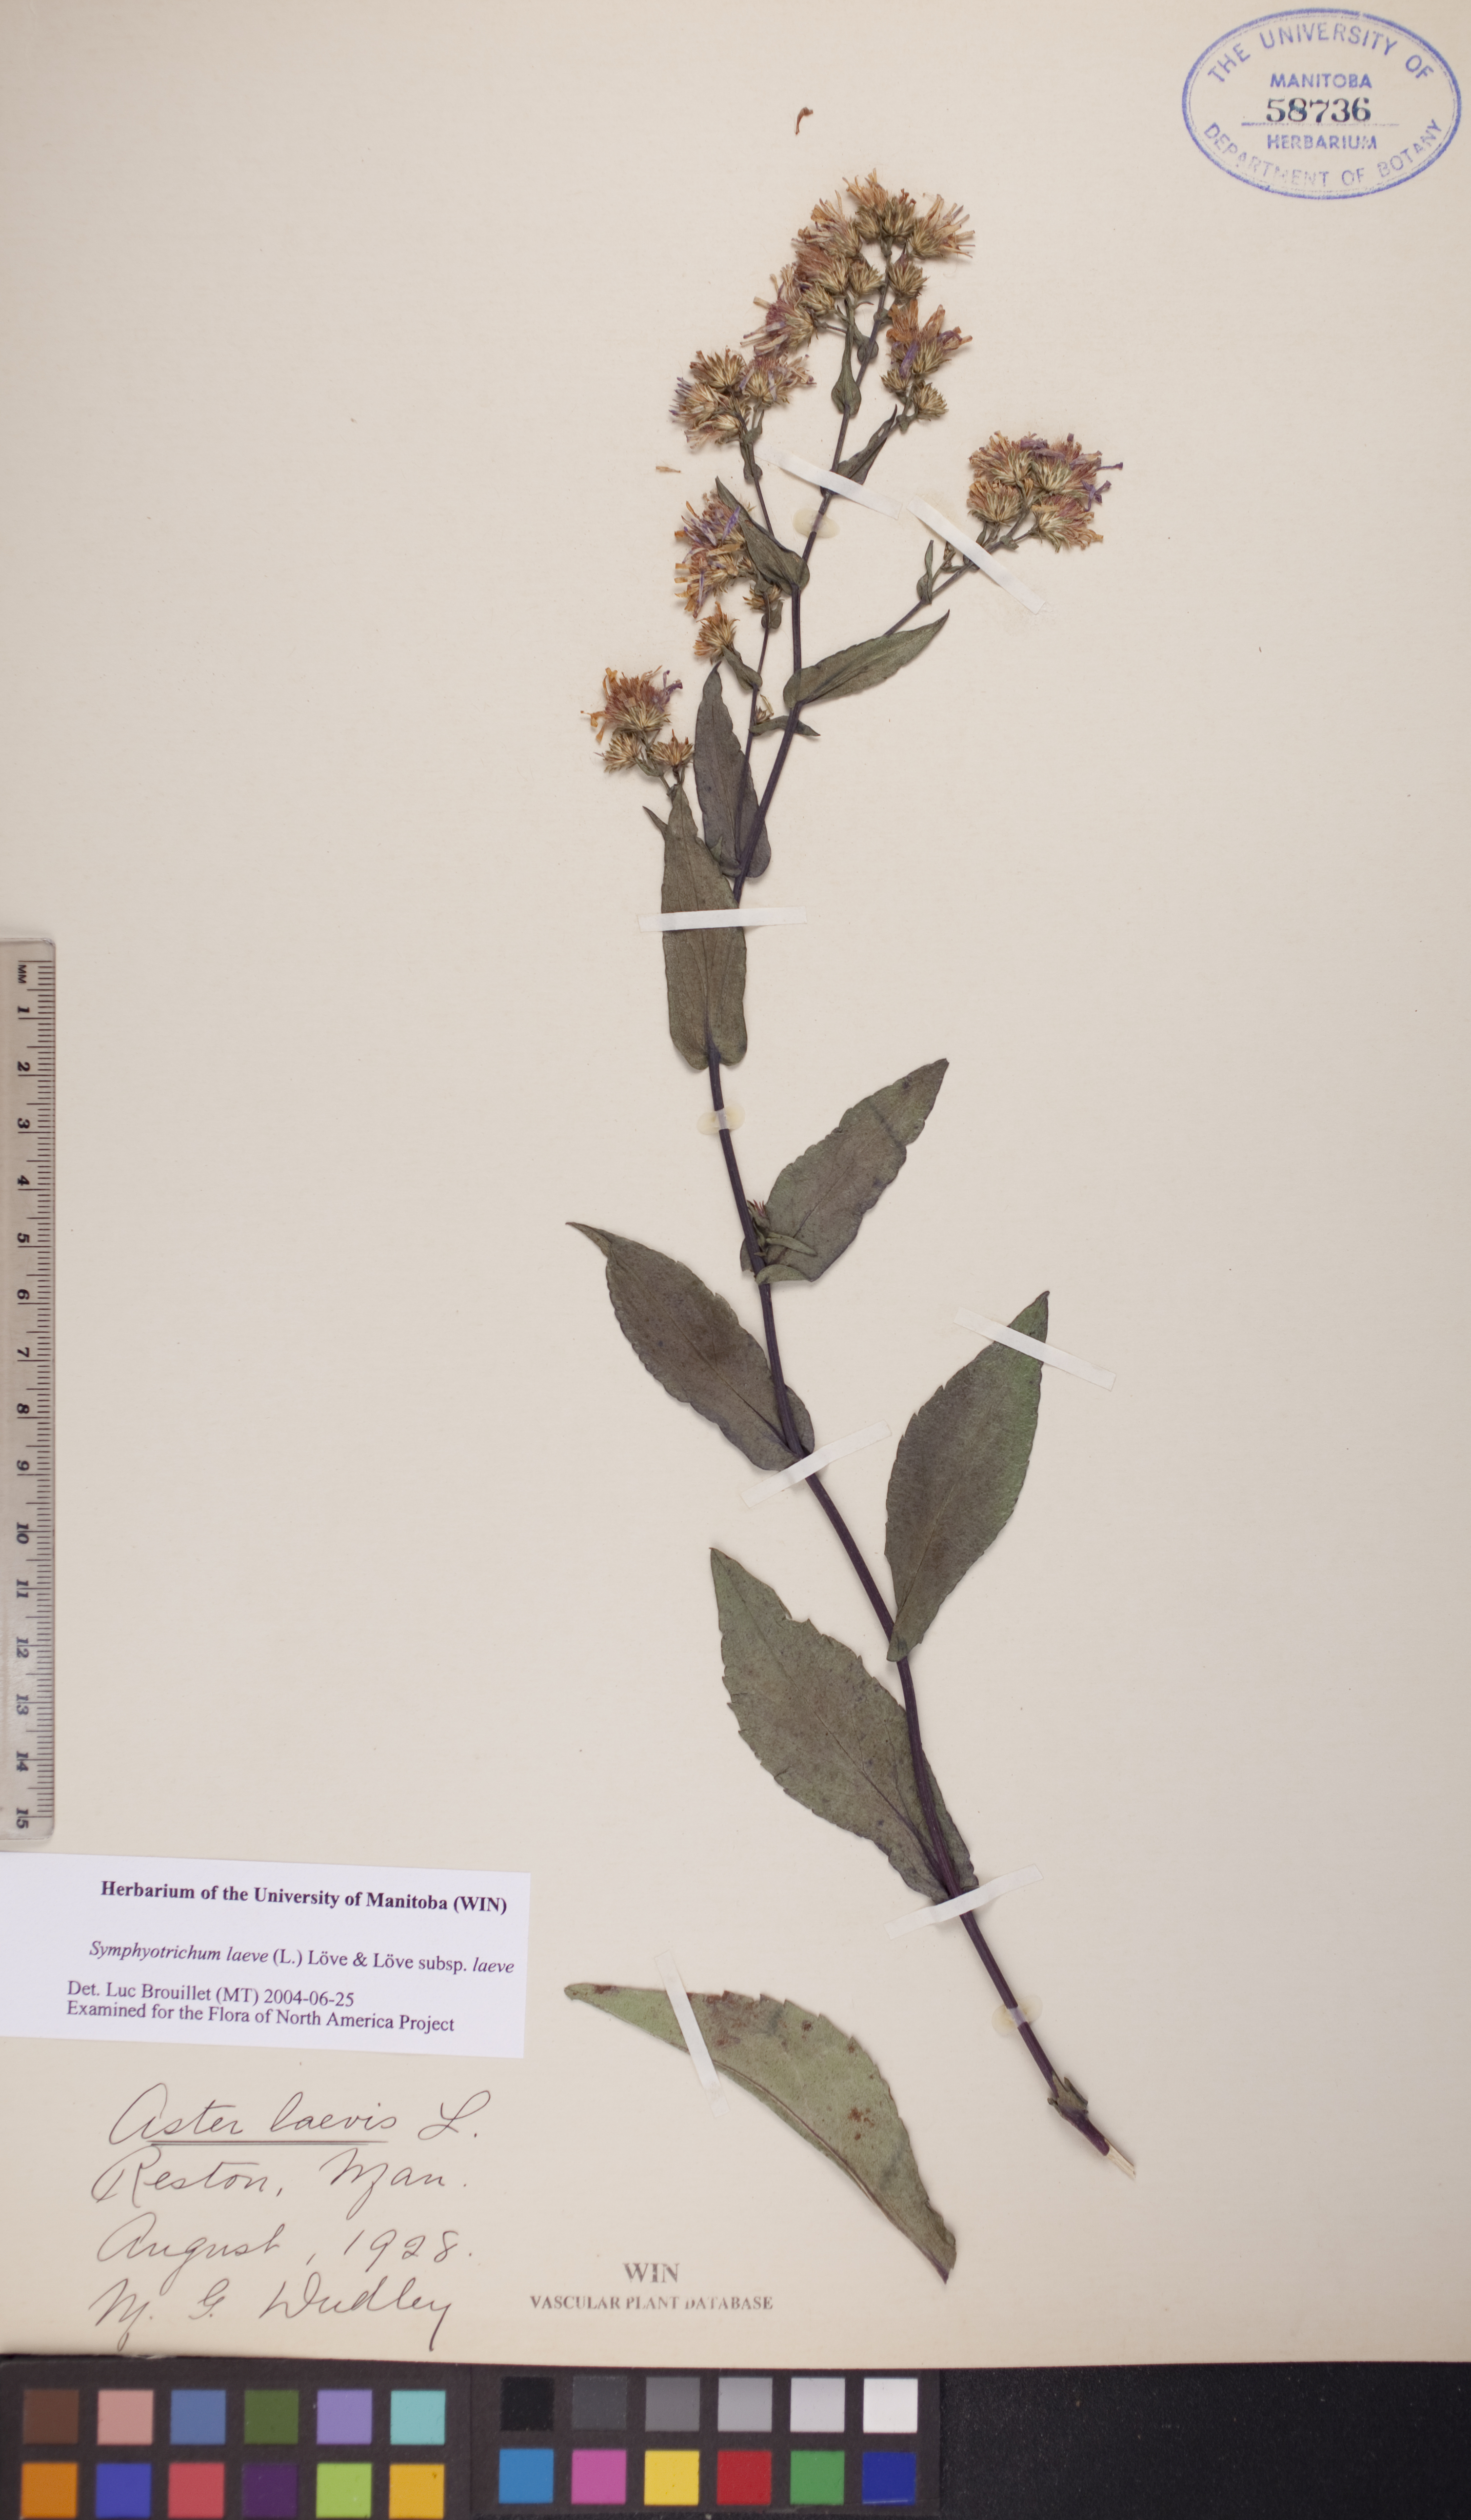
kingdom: Plantae
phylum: Tracheophyta
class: Magnoliopsida
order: Asterales
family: Asteraceae
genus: Symphyotrichum
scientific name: Symphyotrichum laeve
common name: Glaucous aster
